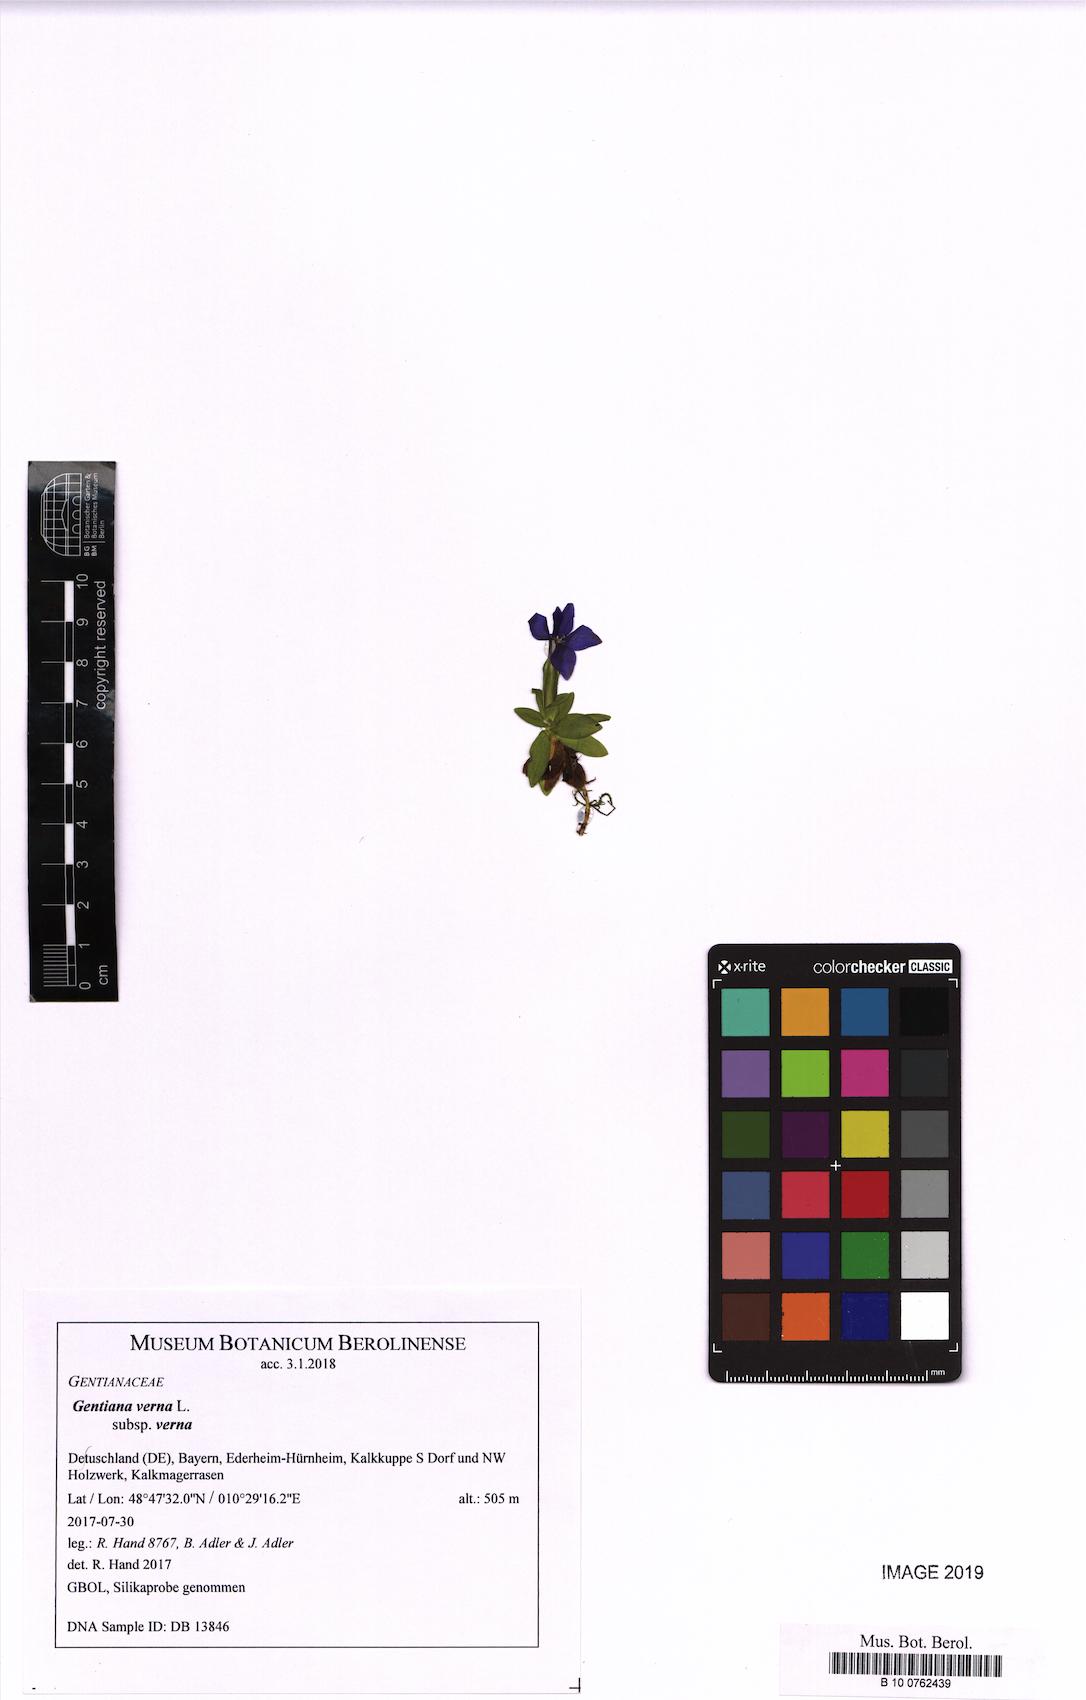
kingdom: Plantae
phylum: Tracheophyta
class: Magnoliopsida
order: Gentianales
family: Gentianaceae
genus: Gentiana
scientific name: Gentiana verna
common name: Spring gentian
